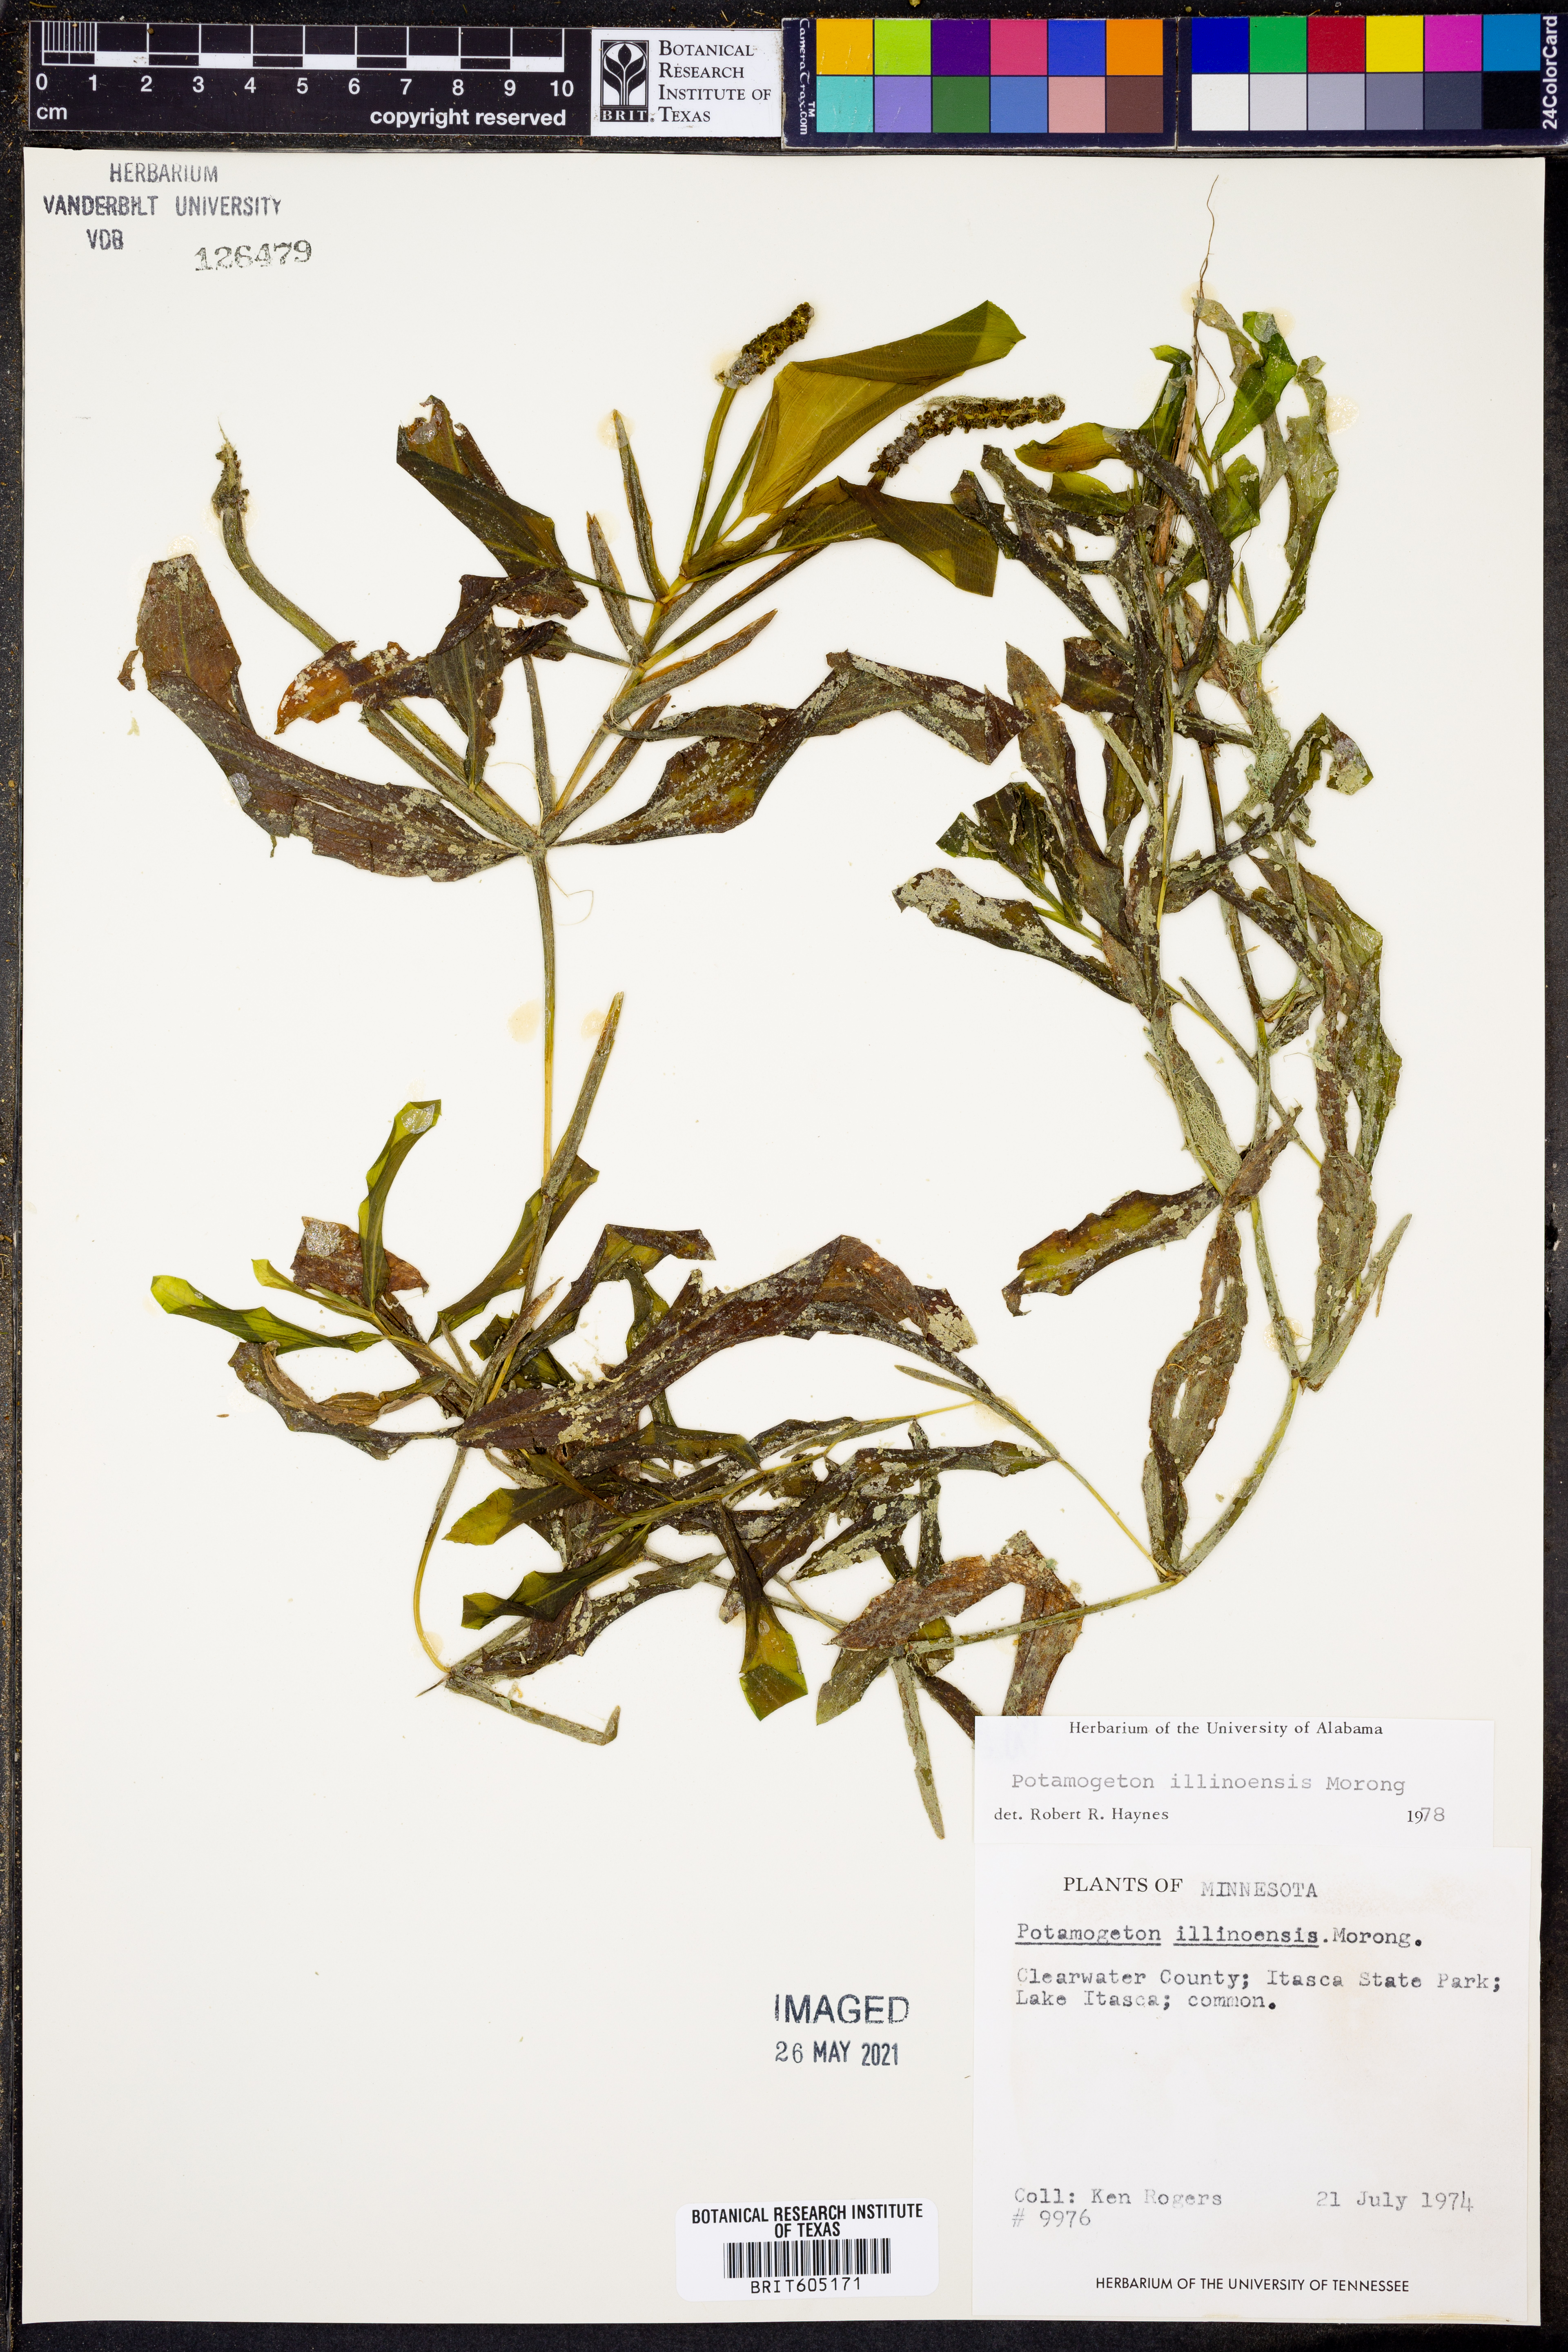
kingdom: Plantae
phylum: Tracheophyta
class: Liliopsida
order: Alismatales
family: Potamogetonaceae
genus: Potamogeton
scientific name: Potamogeton illinoensis
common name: Illinois pondweed
